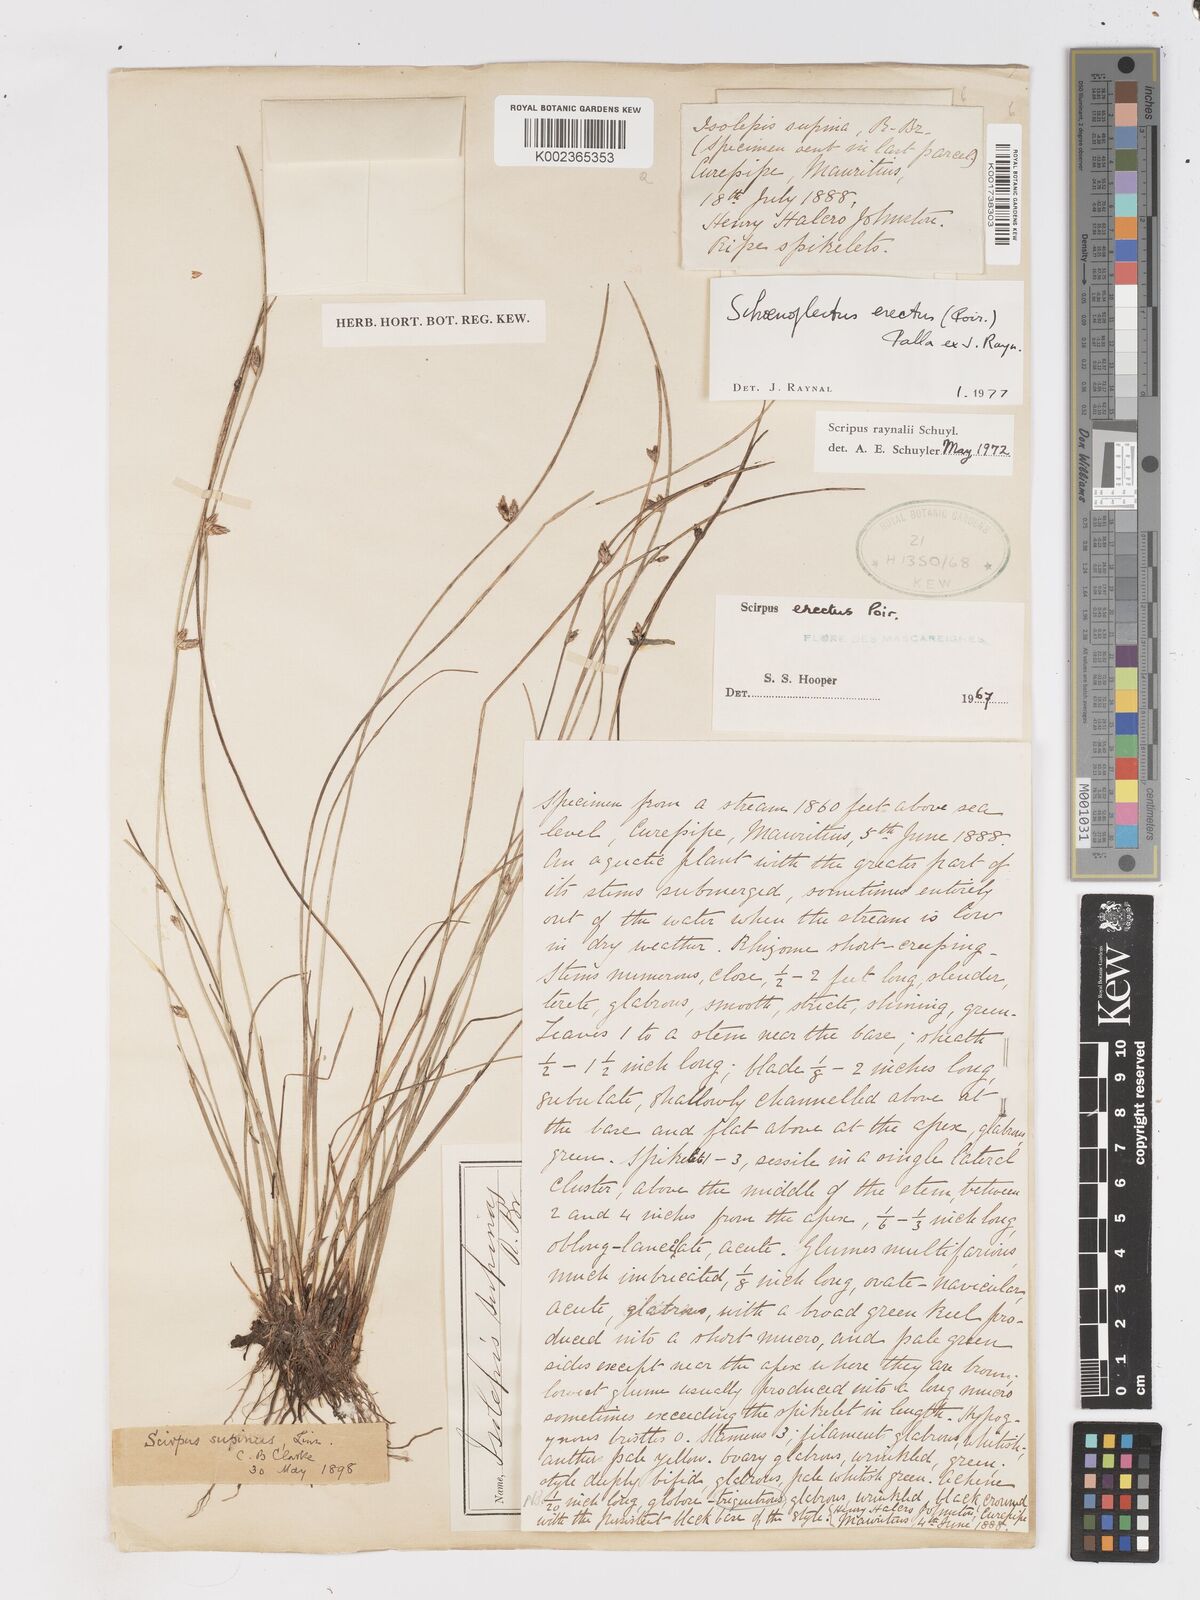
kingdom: Plantae
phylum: Tracheophyta
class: Liliopsida
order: Poales
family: Cyperaceae
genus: Schoenoplectiella
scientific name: Schoenoplectiella erecta
